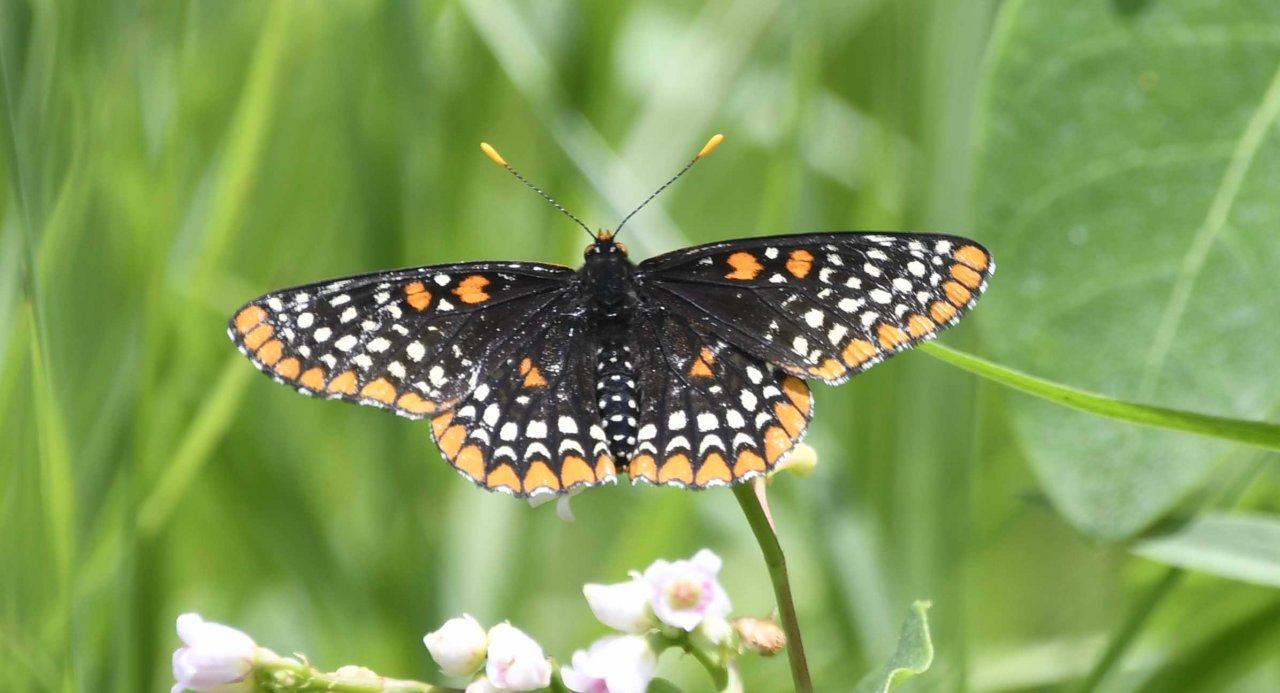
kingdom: Animalia
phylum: Arthropoda
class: Insecta
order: Lepidoptera
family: Nymphalidae
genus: Euphydryas
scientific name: Euphydryas phaeton
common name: Baltimore Checkerspot
